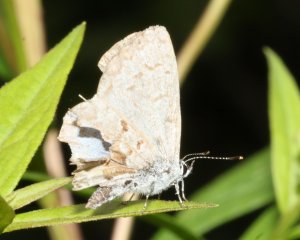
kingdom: Animalia
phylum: Arthropoda
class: Insecta
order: Lepidoptera
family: Lycaenidae
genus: Celastrina
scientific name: Celastrina serotina
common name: Cherry Gall Azure
